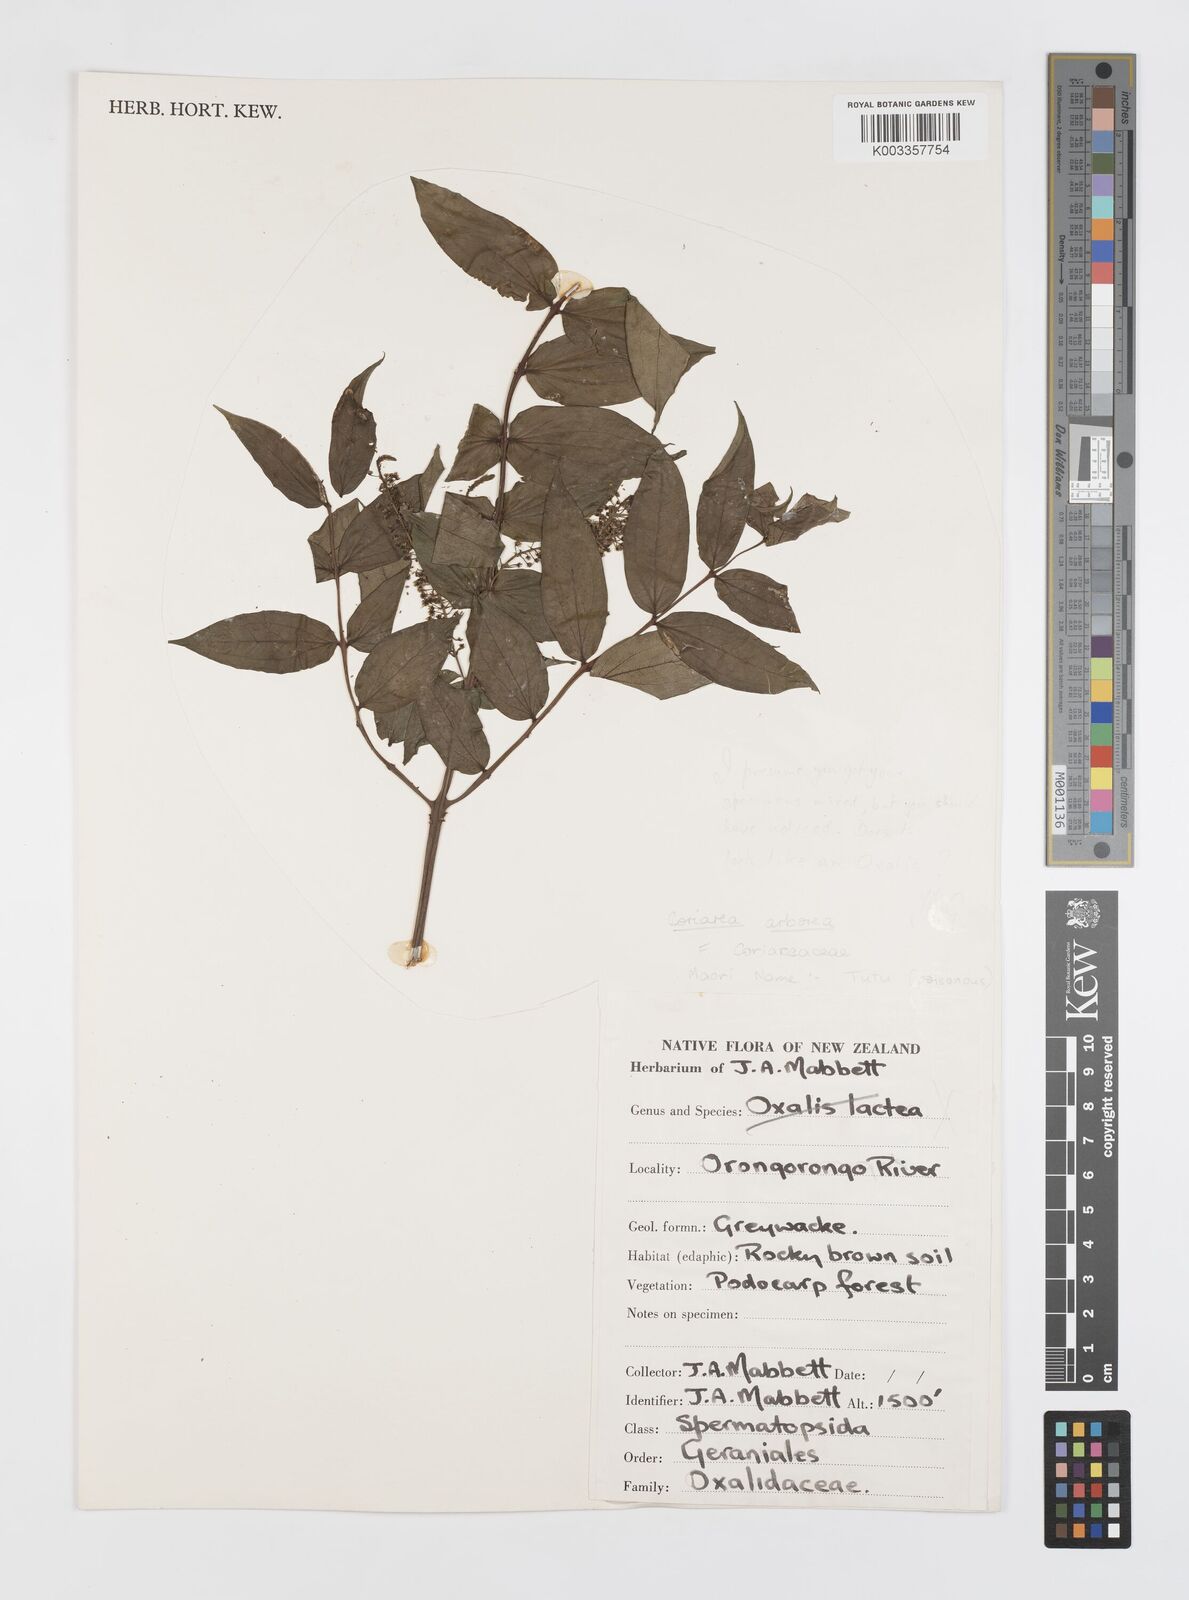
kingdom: Plantae
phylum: Tracheophyta
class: Magnoliopsida
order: Cucurbitales
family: Coriariaceae
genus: Coriaria
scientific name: Coriaria arborea
